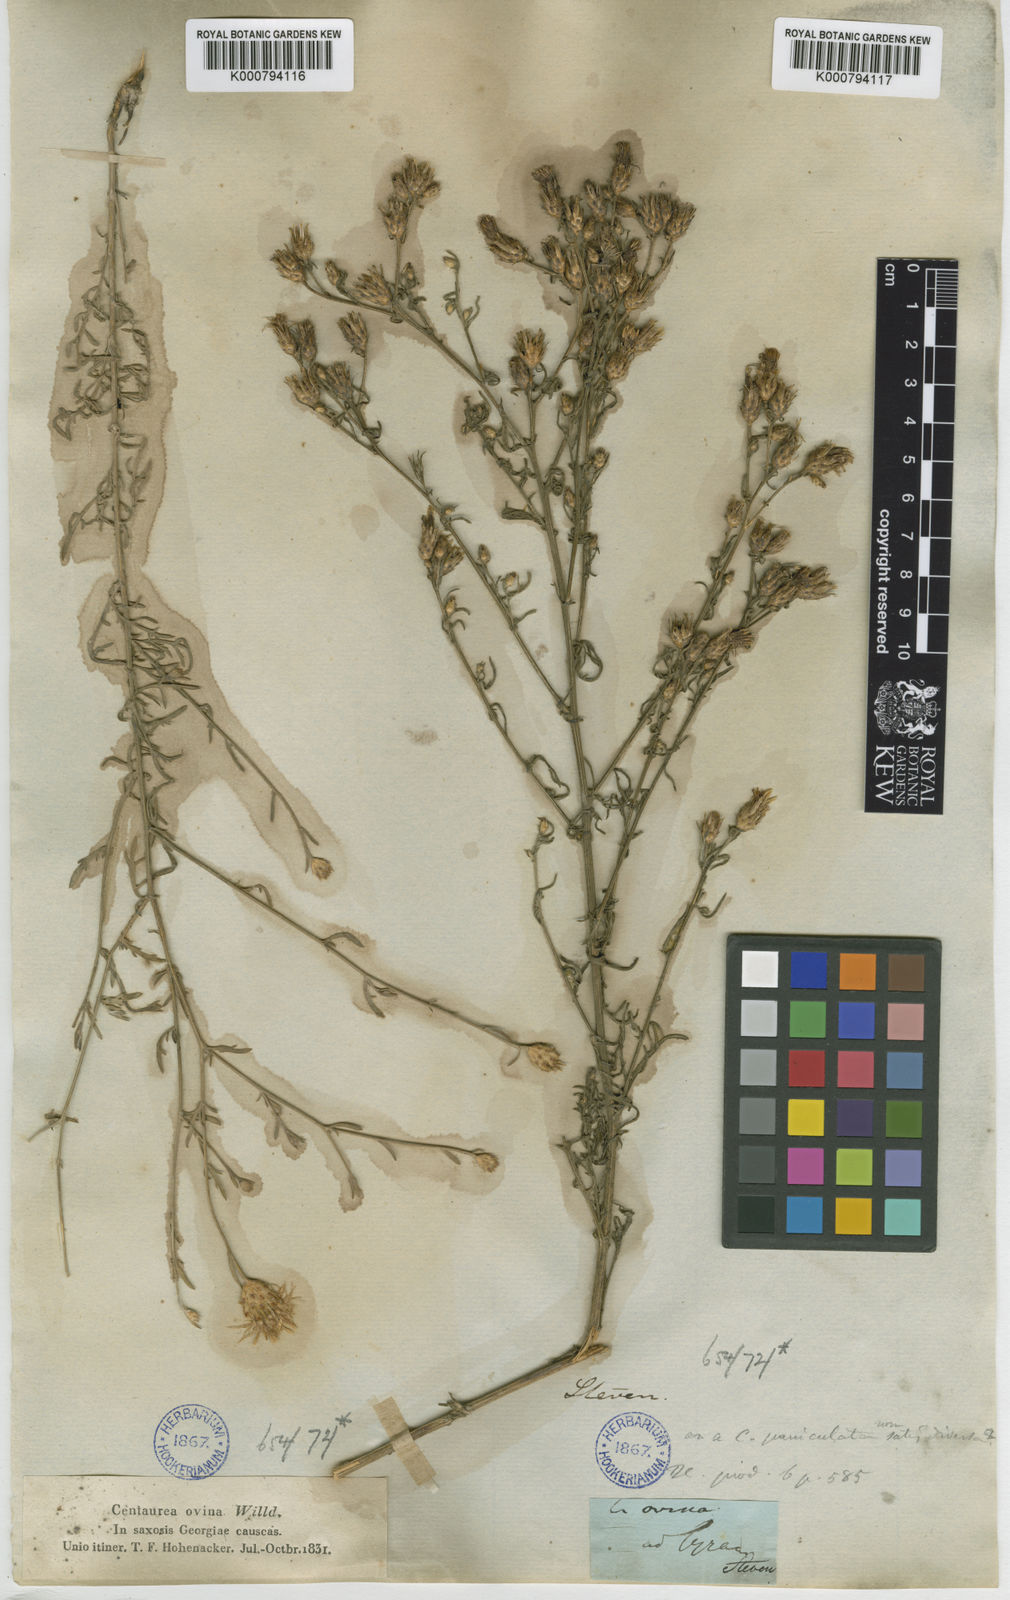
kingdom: Plantae
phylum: Tracheophyta
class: Magnoliopsida
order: Asterales
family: Asteraceae
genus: Centaurea
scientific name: Centaurea
